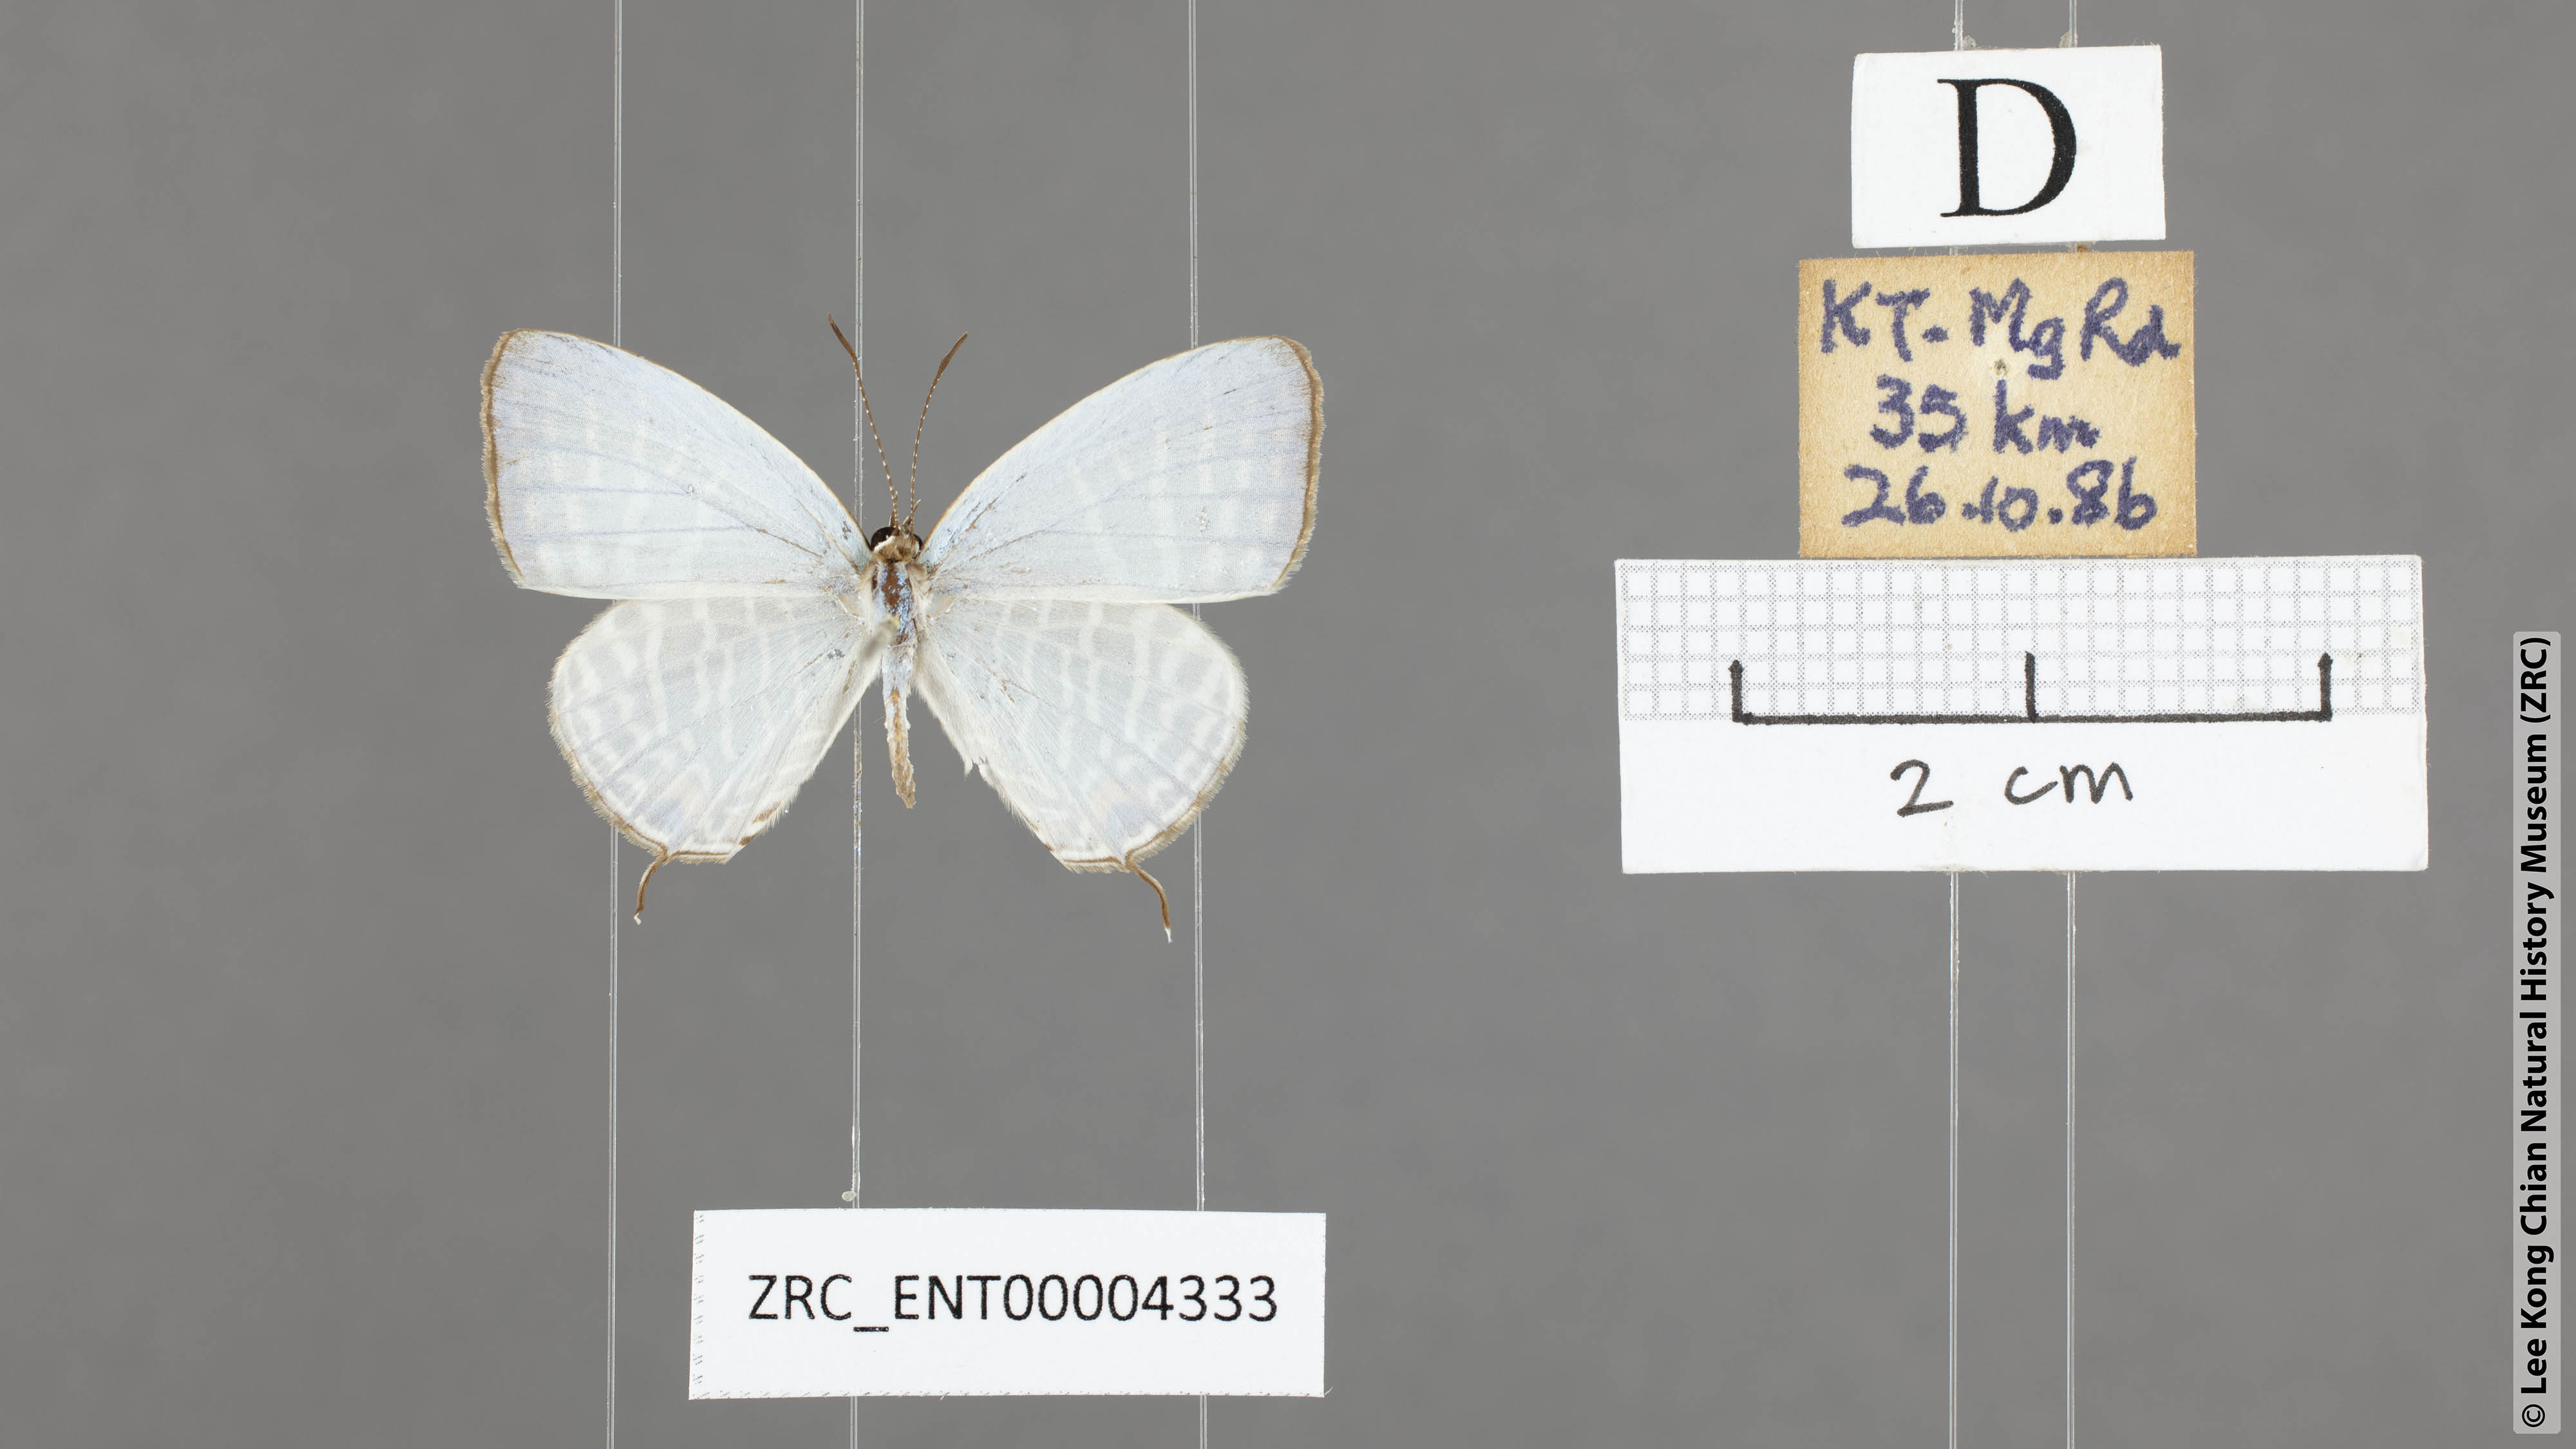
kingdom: Animalia
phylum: Arthropoda
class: Insecta
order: Lepidoptera
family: Lycaenidae
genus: Jamides
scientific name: Jamides celeno
